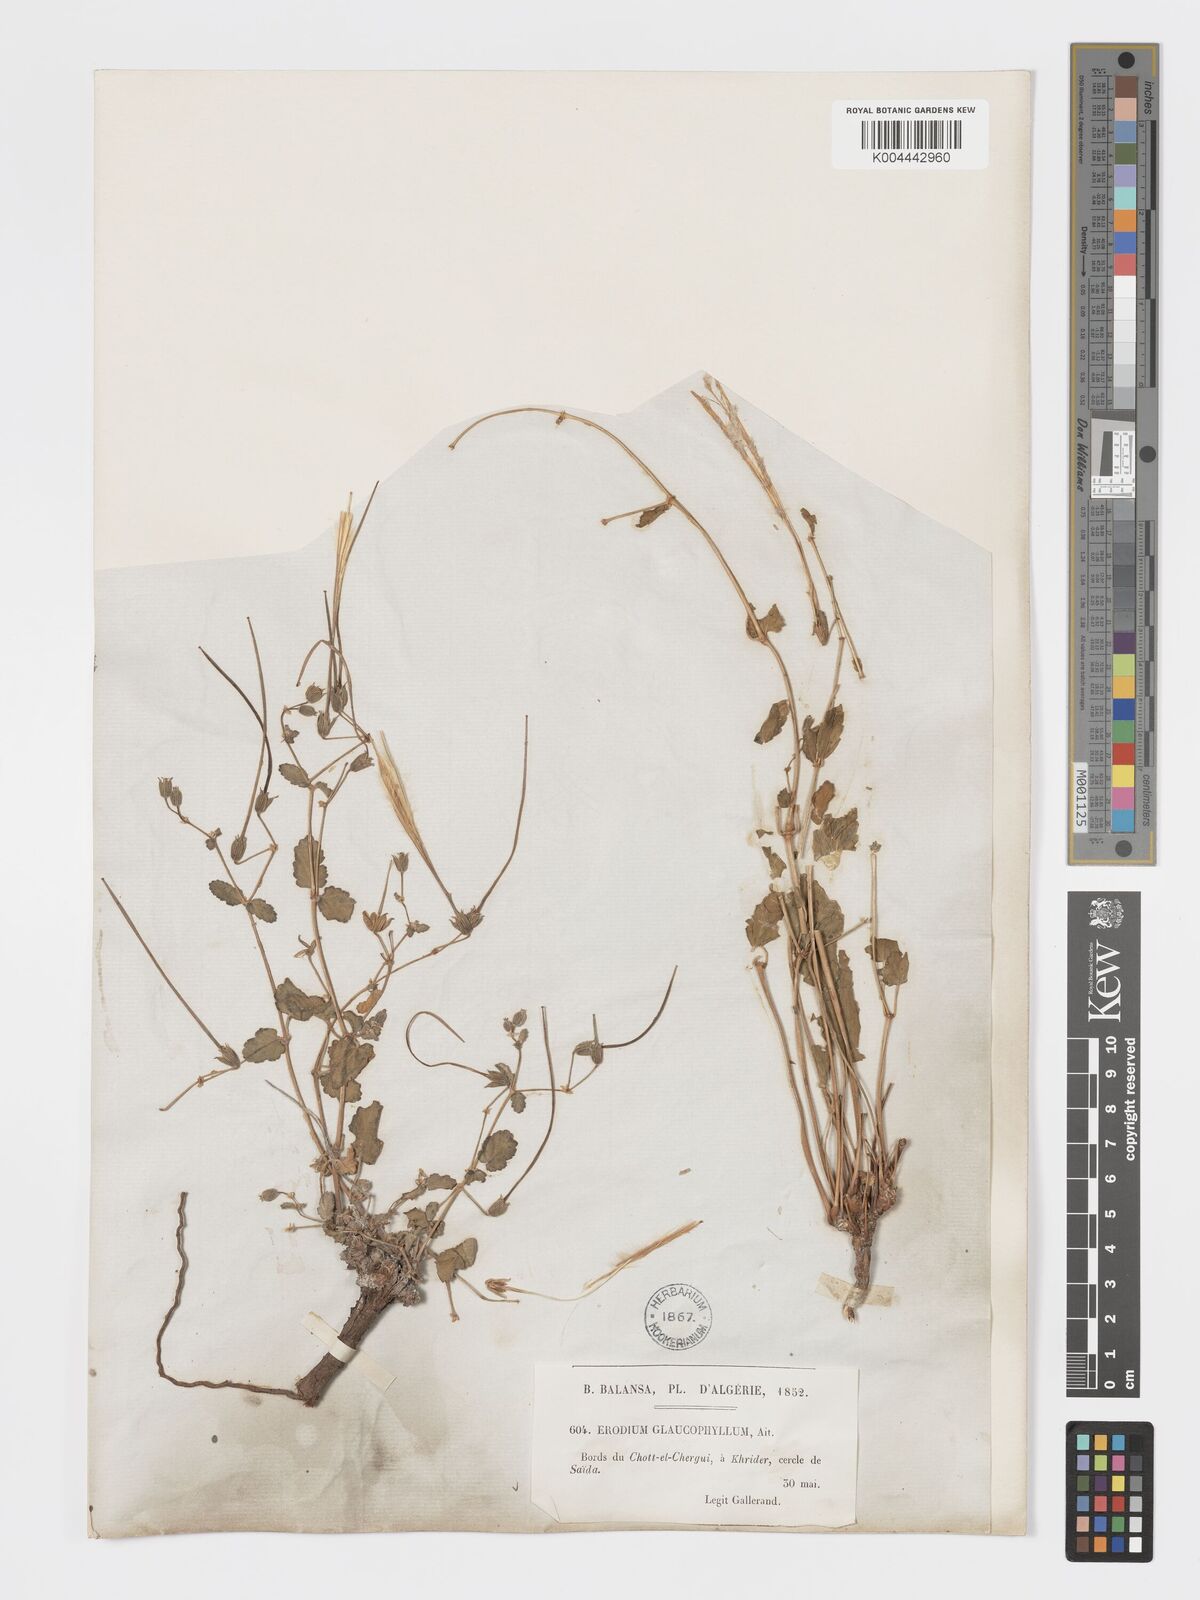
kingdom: Plantae
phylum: Tracheophyta
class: Magnoliopsida
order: Geraniales
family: Geraniaceae
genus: Erodium
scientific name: Erodium glaucophyllum
